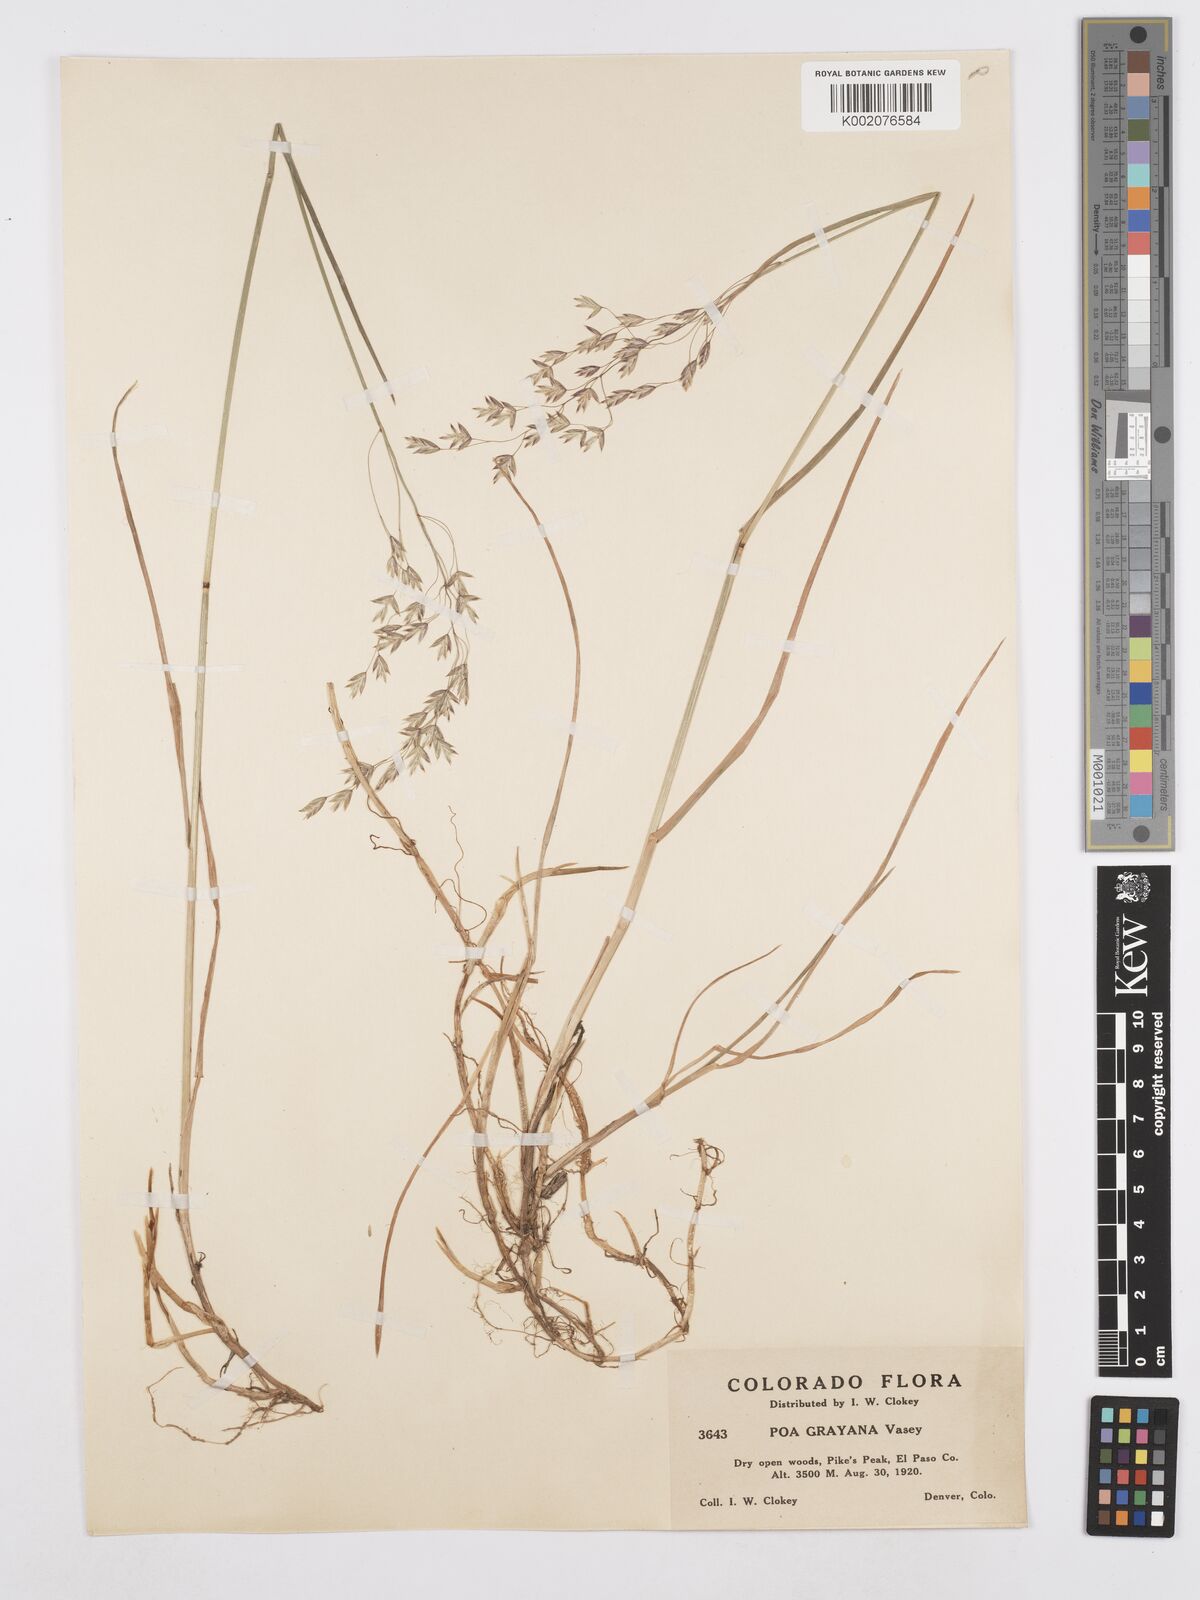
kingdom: Plantae
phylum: Tracheophyta
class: Liliopsida
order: Poales
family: Poaceae
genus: Poa
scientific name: Poa arctica
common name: Arctic bluegrass
